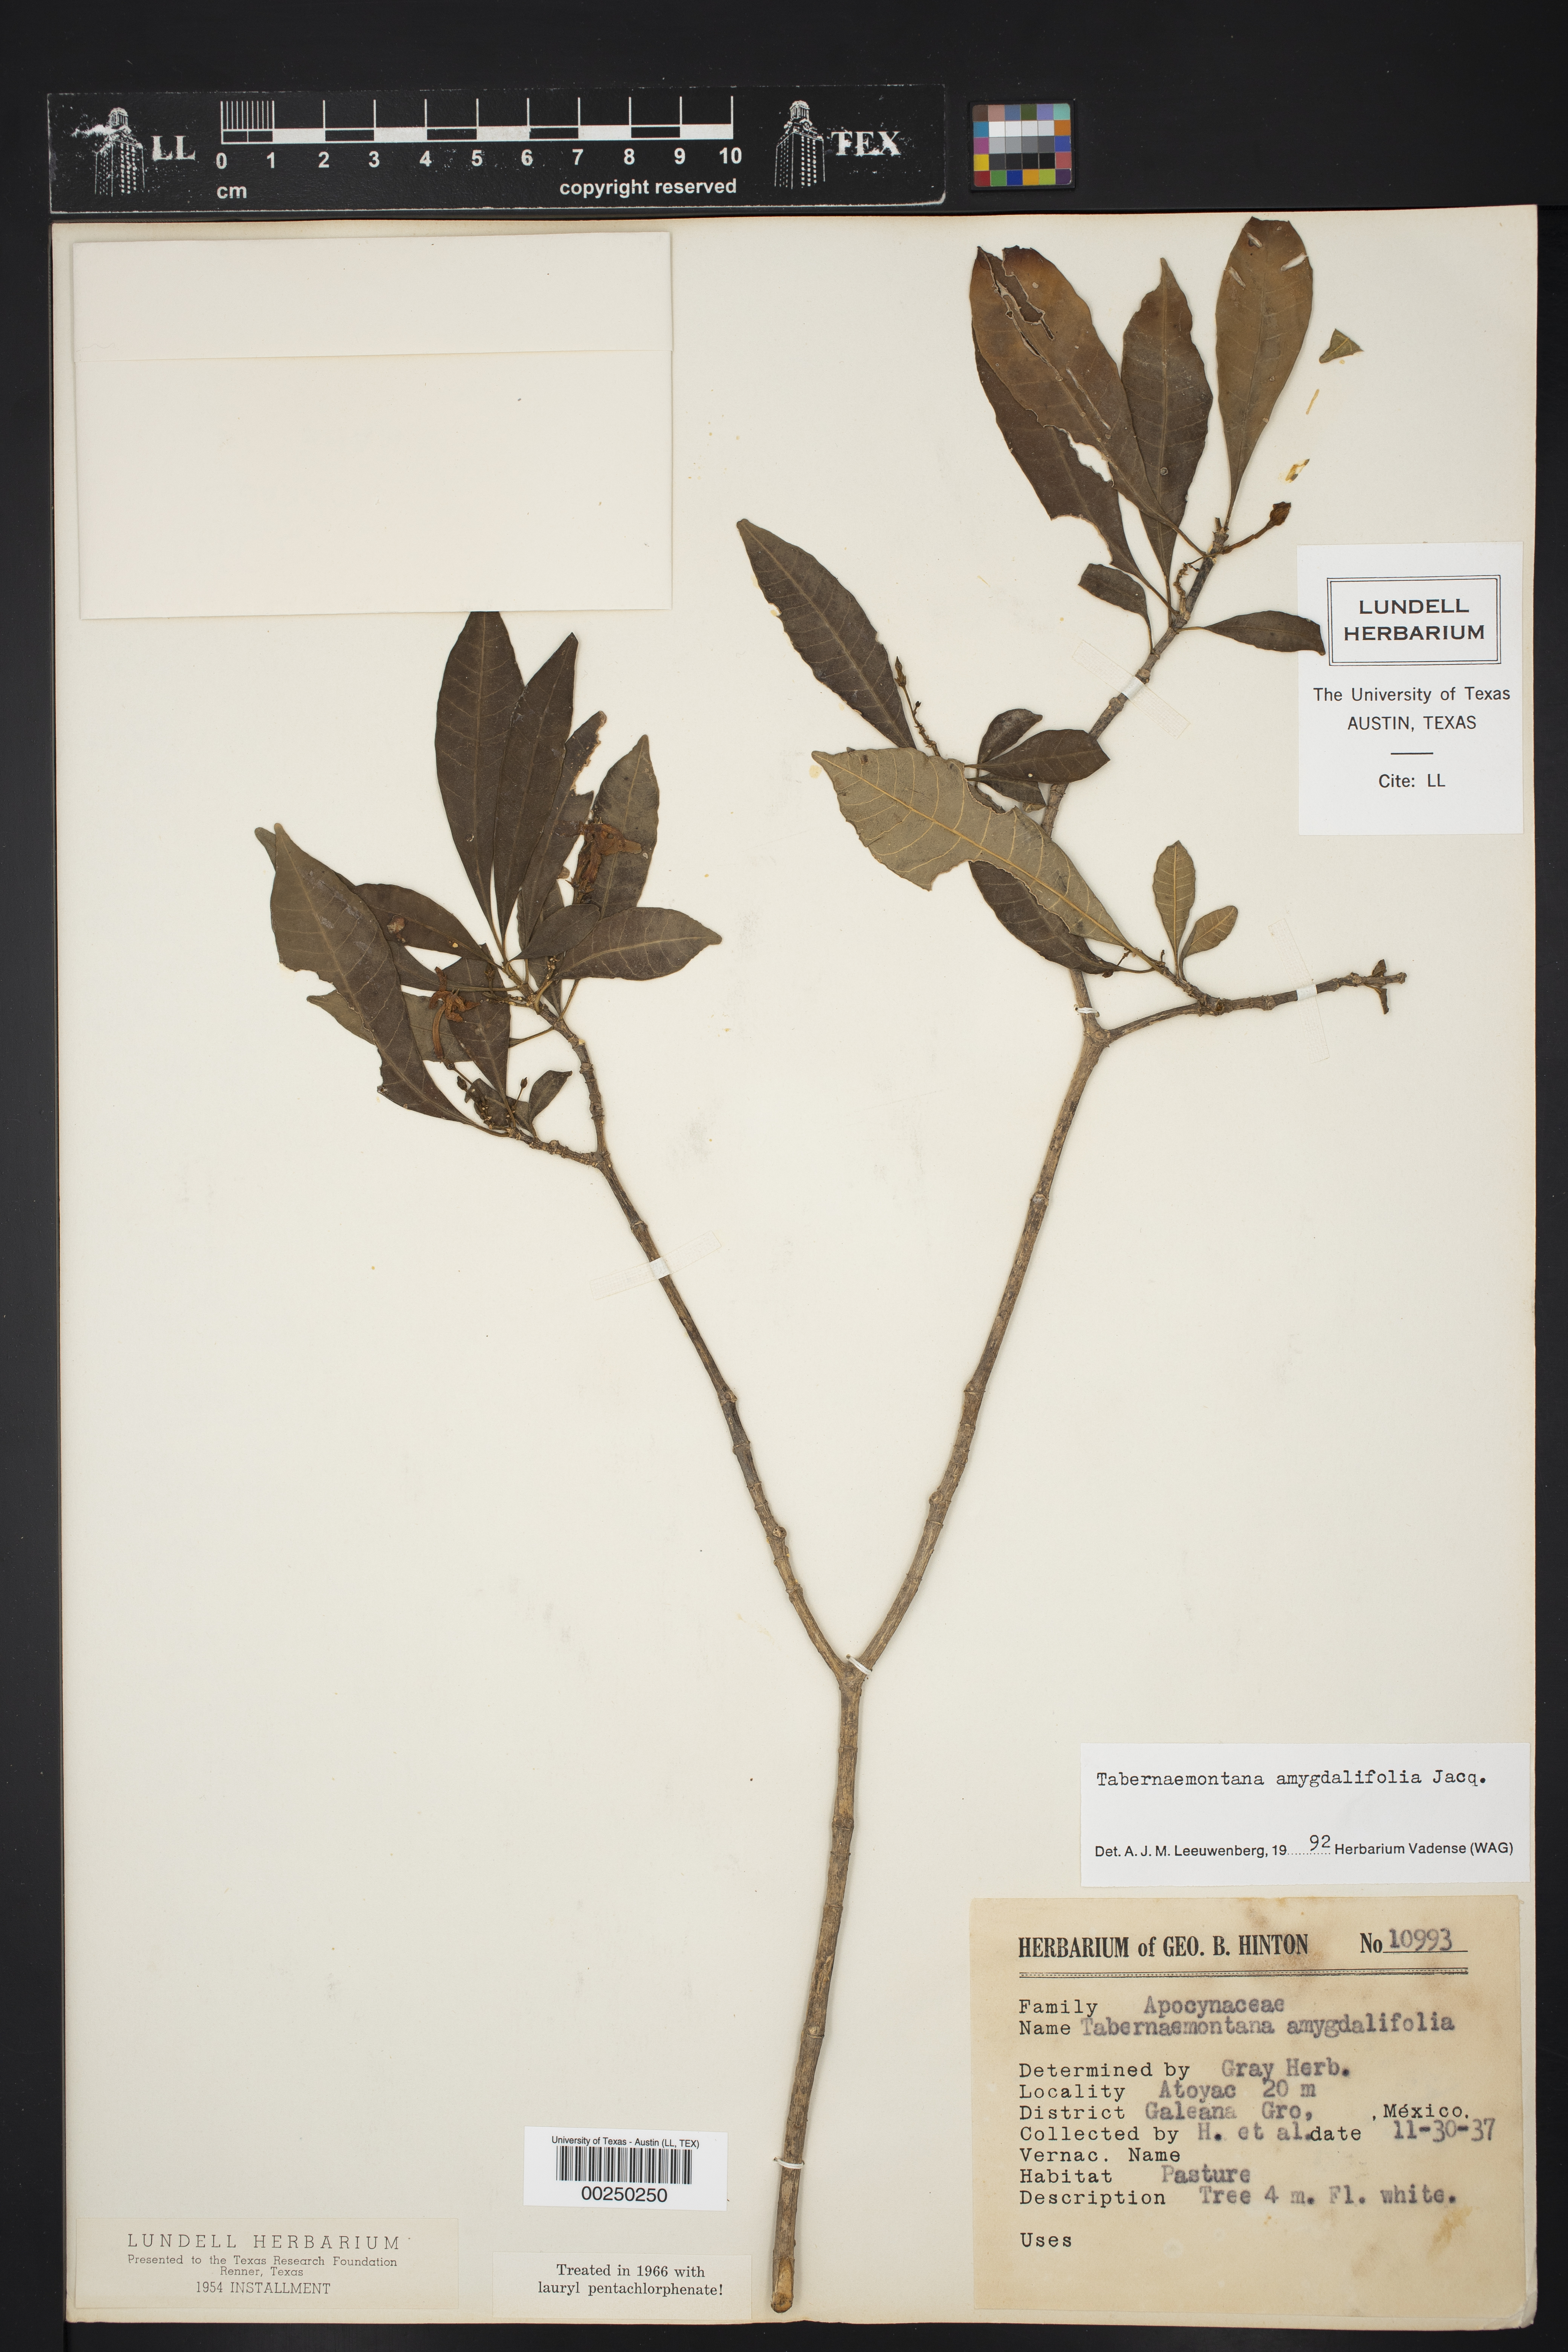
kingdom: Plantae
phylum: Tracheophyta
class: Magnoliopsida
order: Gentianales
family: Apocynaceae
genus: Tabernaemontana
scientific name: Tabernaemontana amygdalifolia
